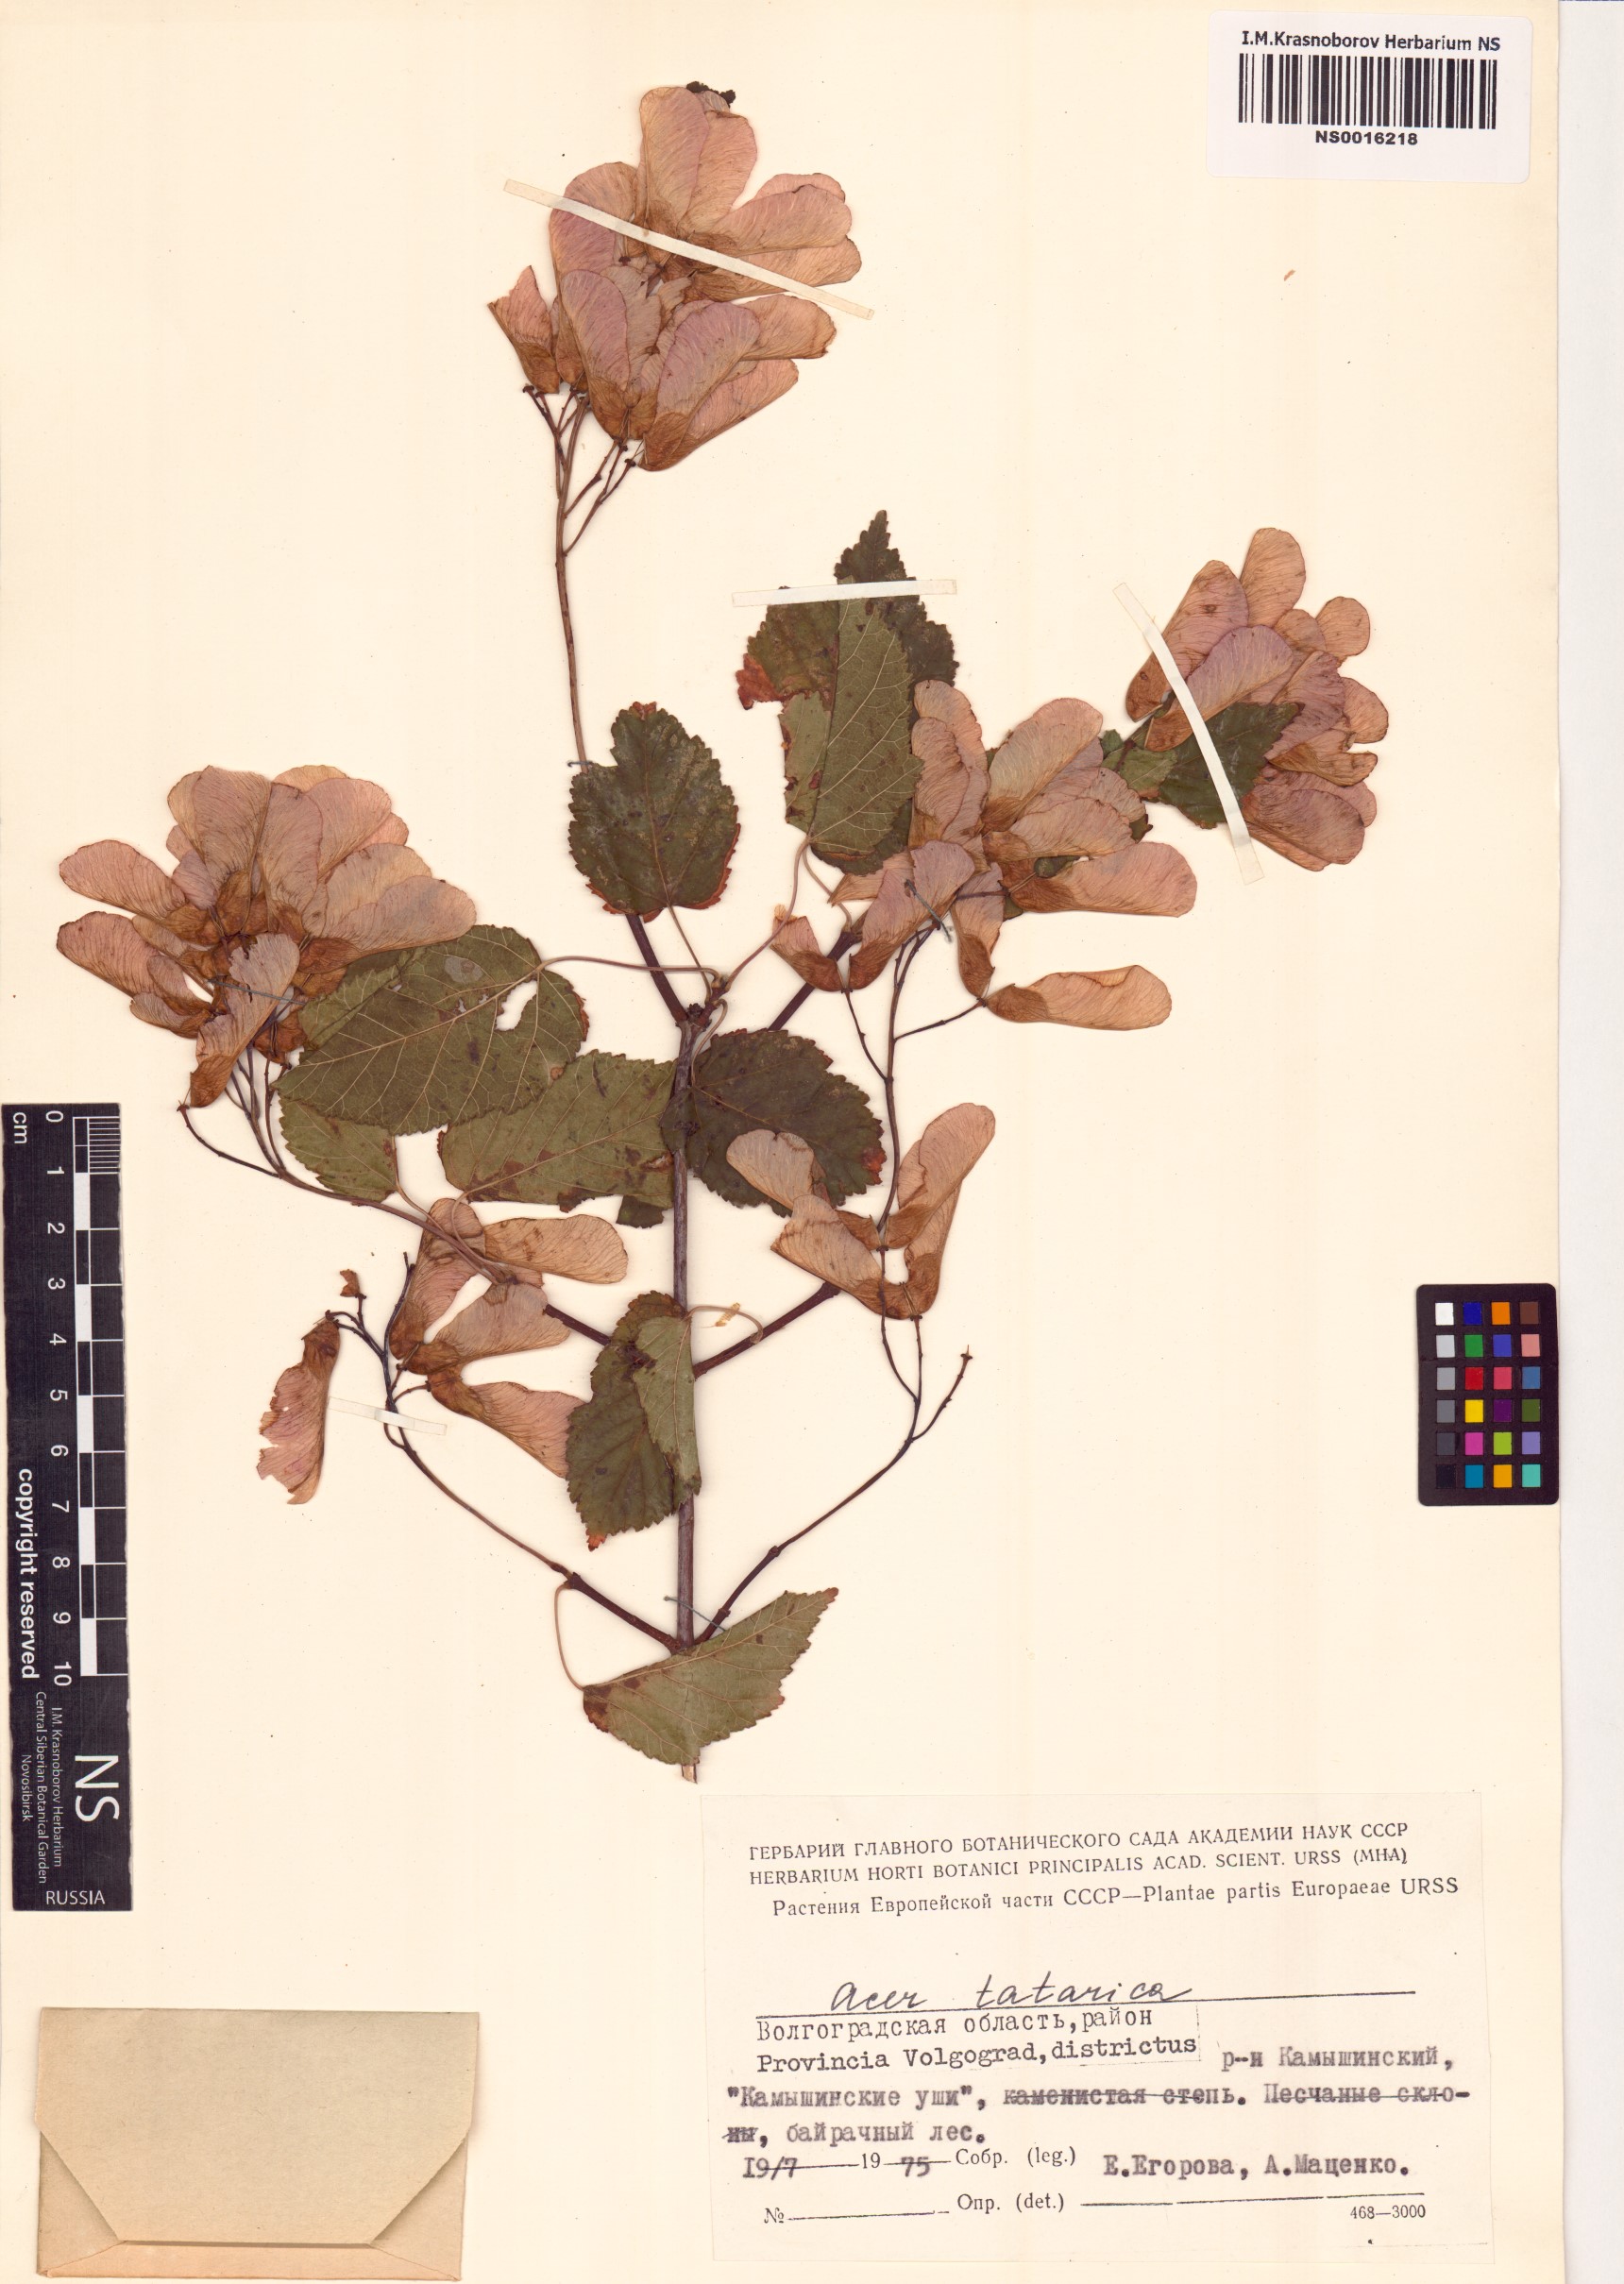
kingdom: Plantae
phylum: Tracheophyta
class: Magnoliopsida
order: Sapindales
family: Sapindaceae
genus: Acer
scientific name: Acer tataricum
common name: Tartar maple
